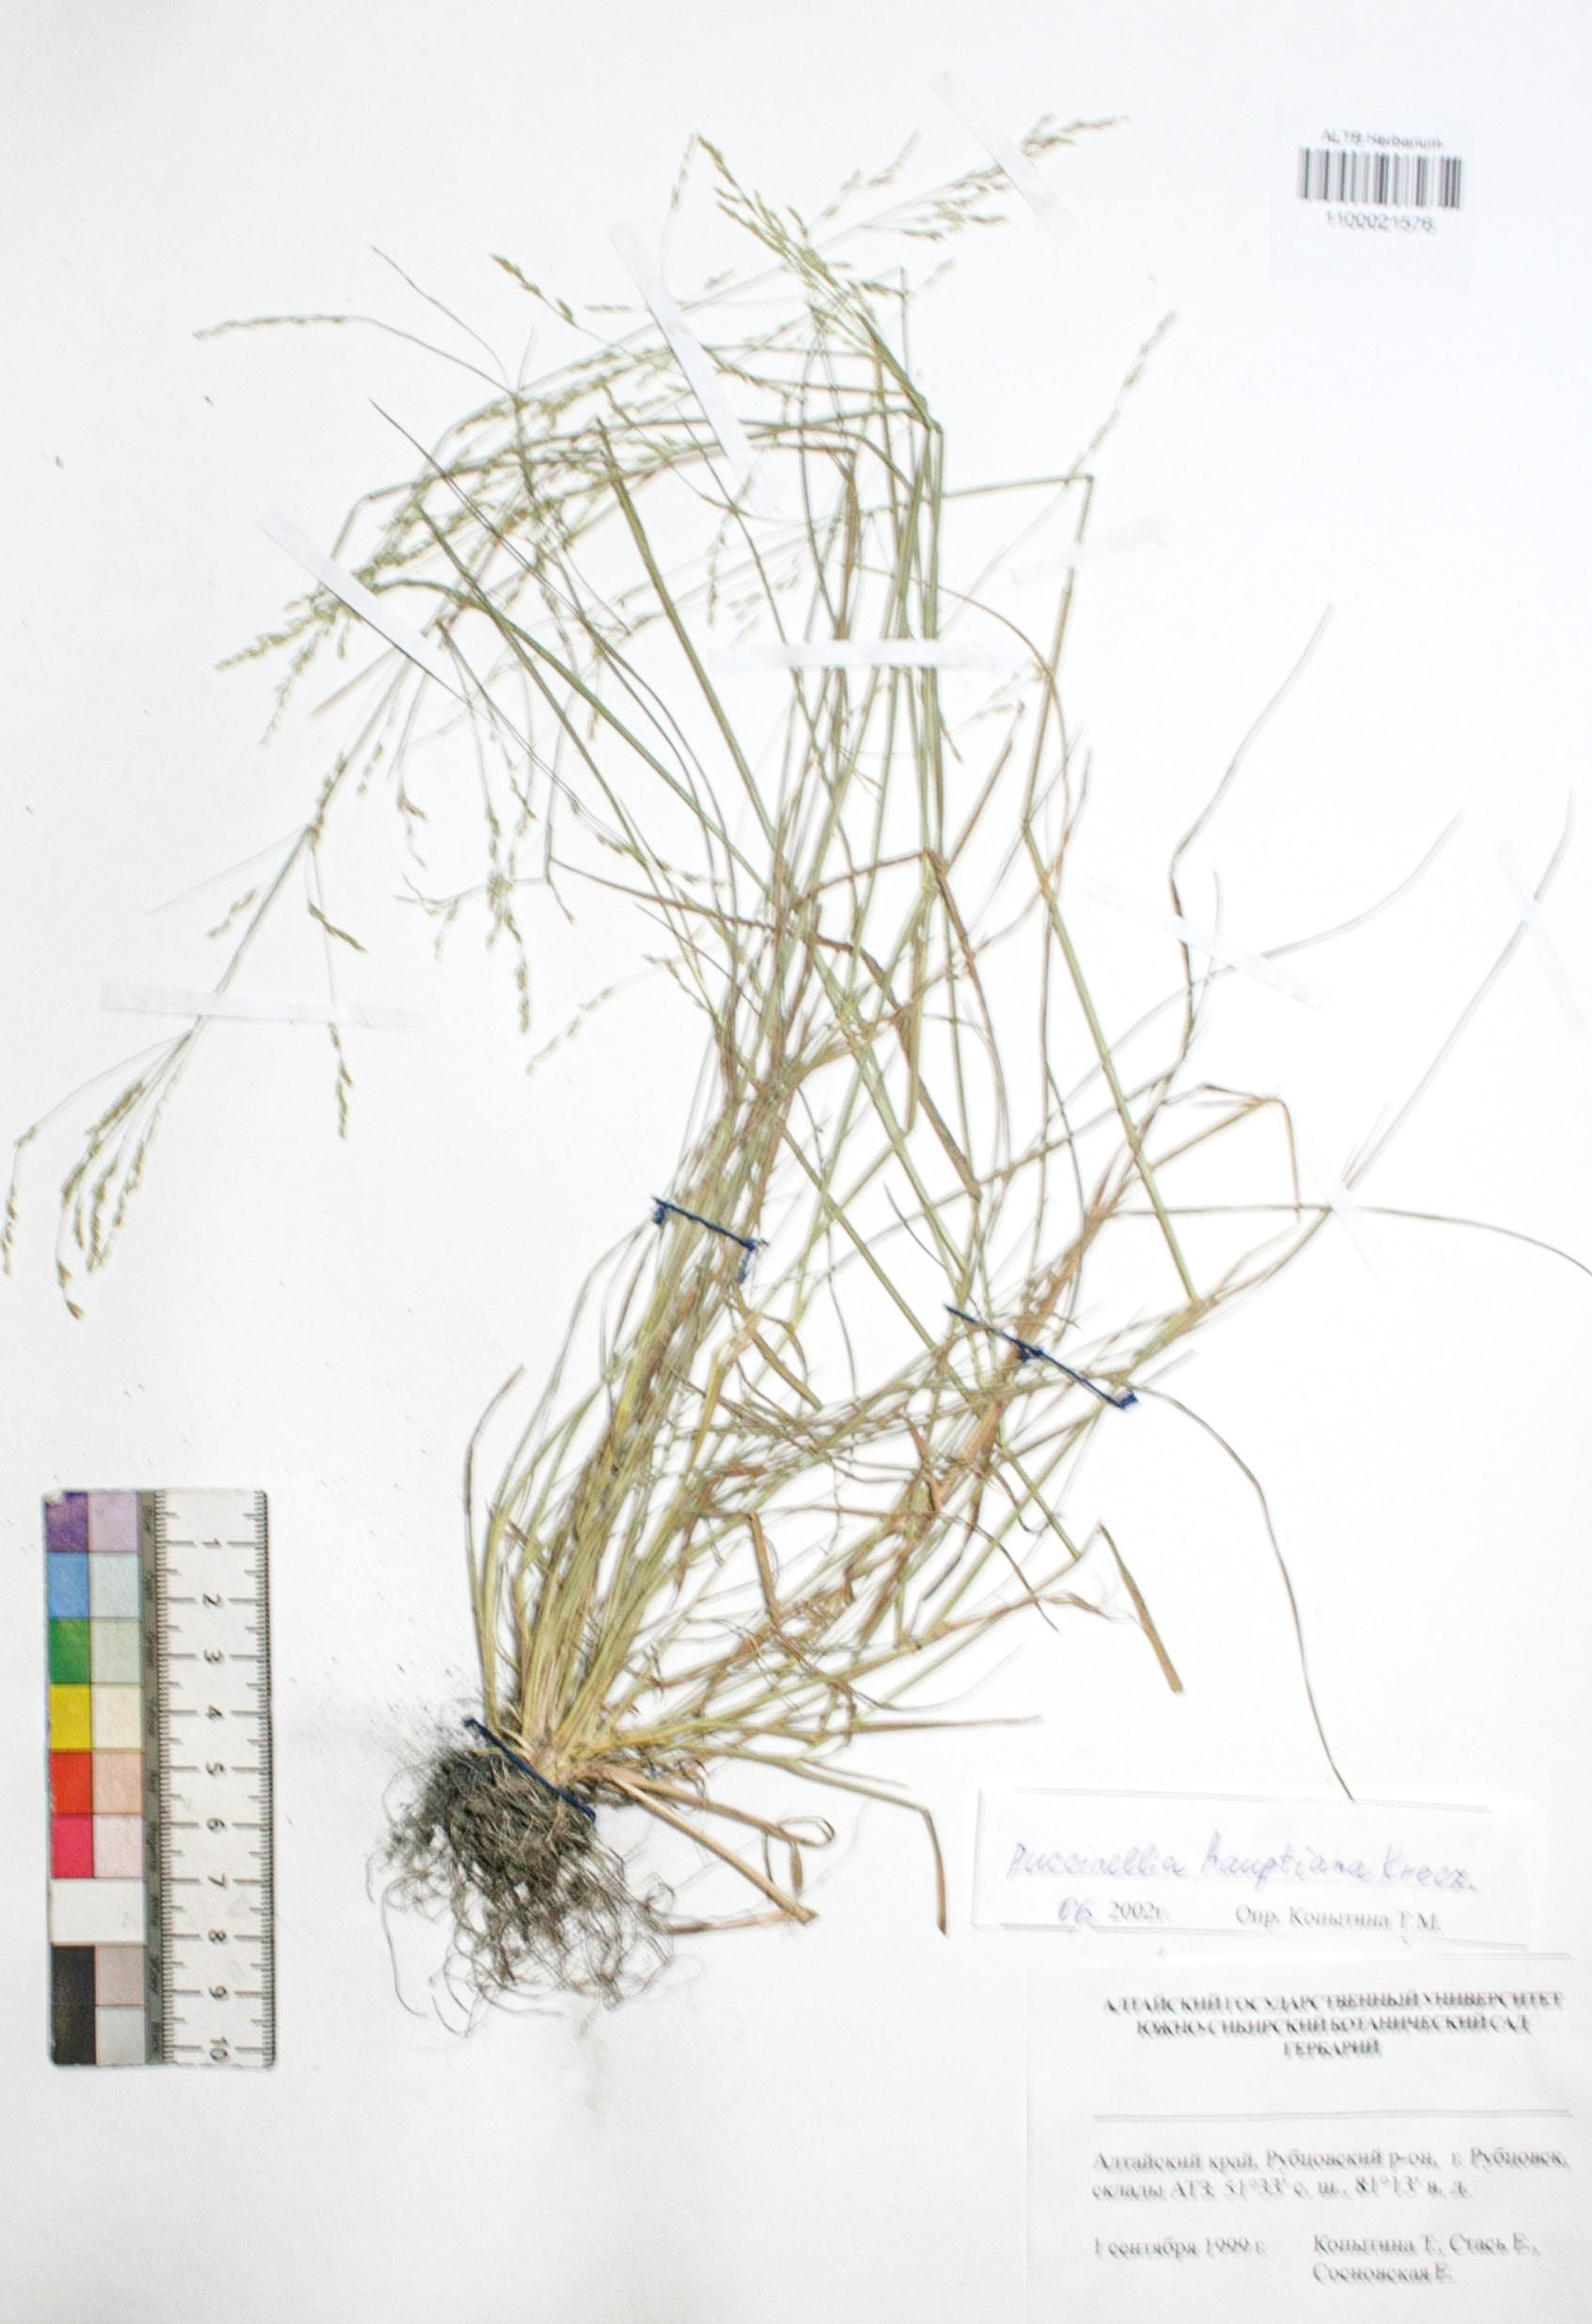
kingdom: Plantae
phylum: Tracheophyta
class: Liliopsida
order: Poales
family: Poaceae
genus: Puccinellia
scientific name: Puccinellia hauptiana
